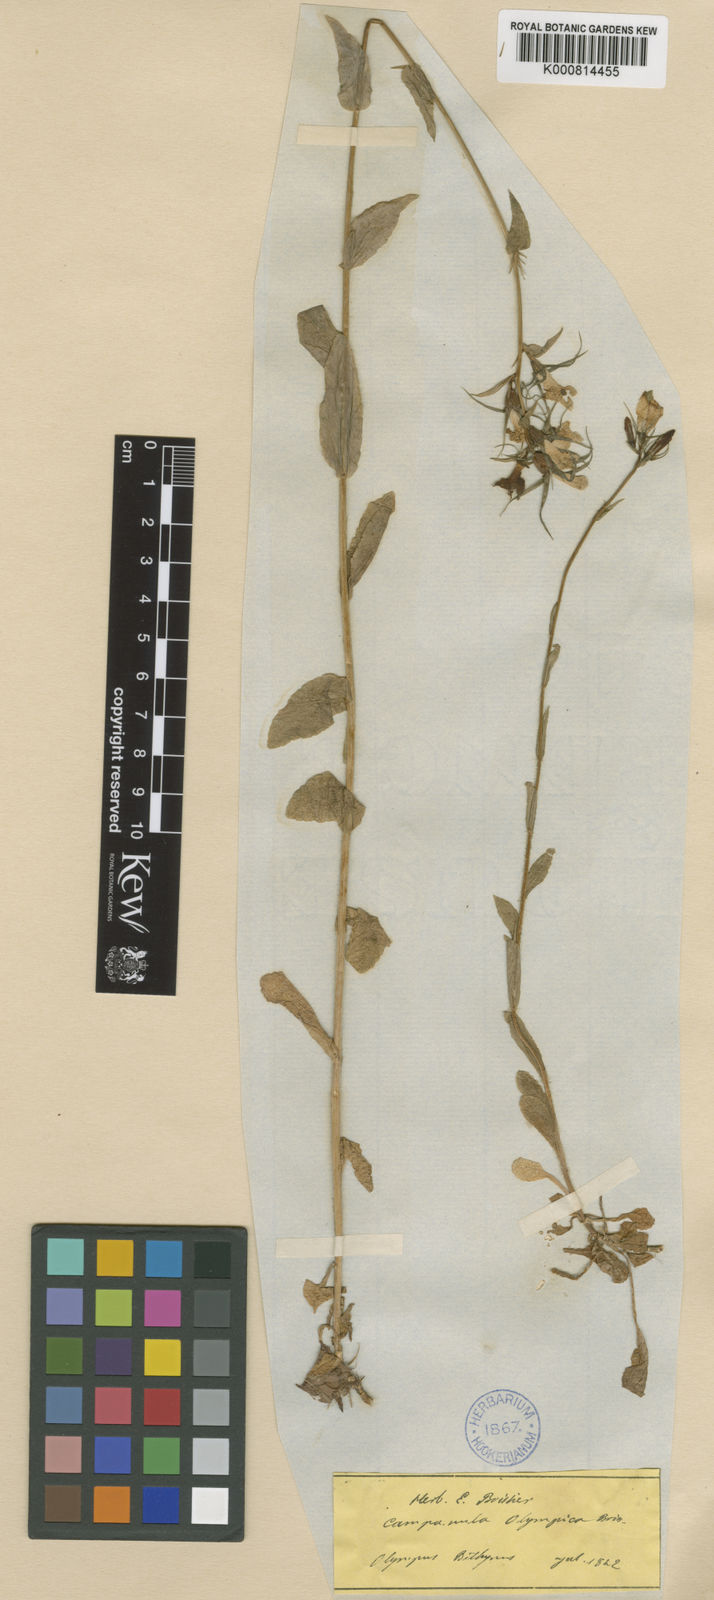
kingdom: Plantae
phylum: Tracheophyta
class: Magnoliopsida
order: Asterales
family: Campanulaceae
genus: Campanula
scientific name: Campanula olympica
